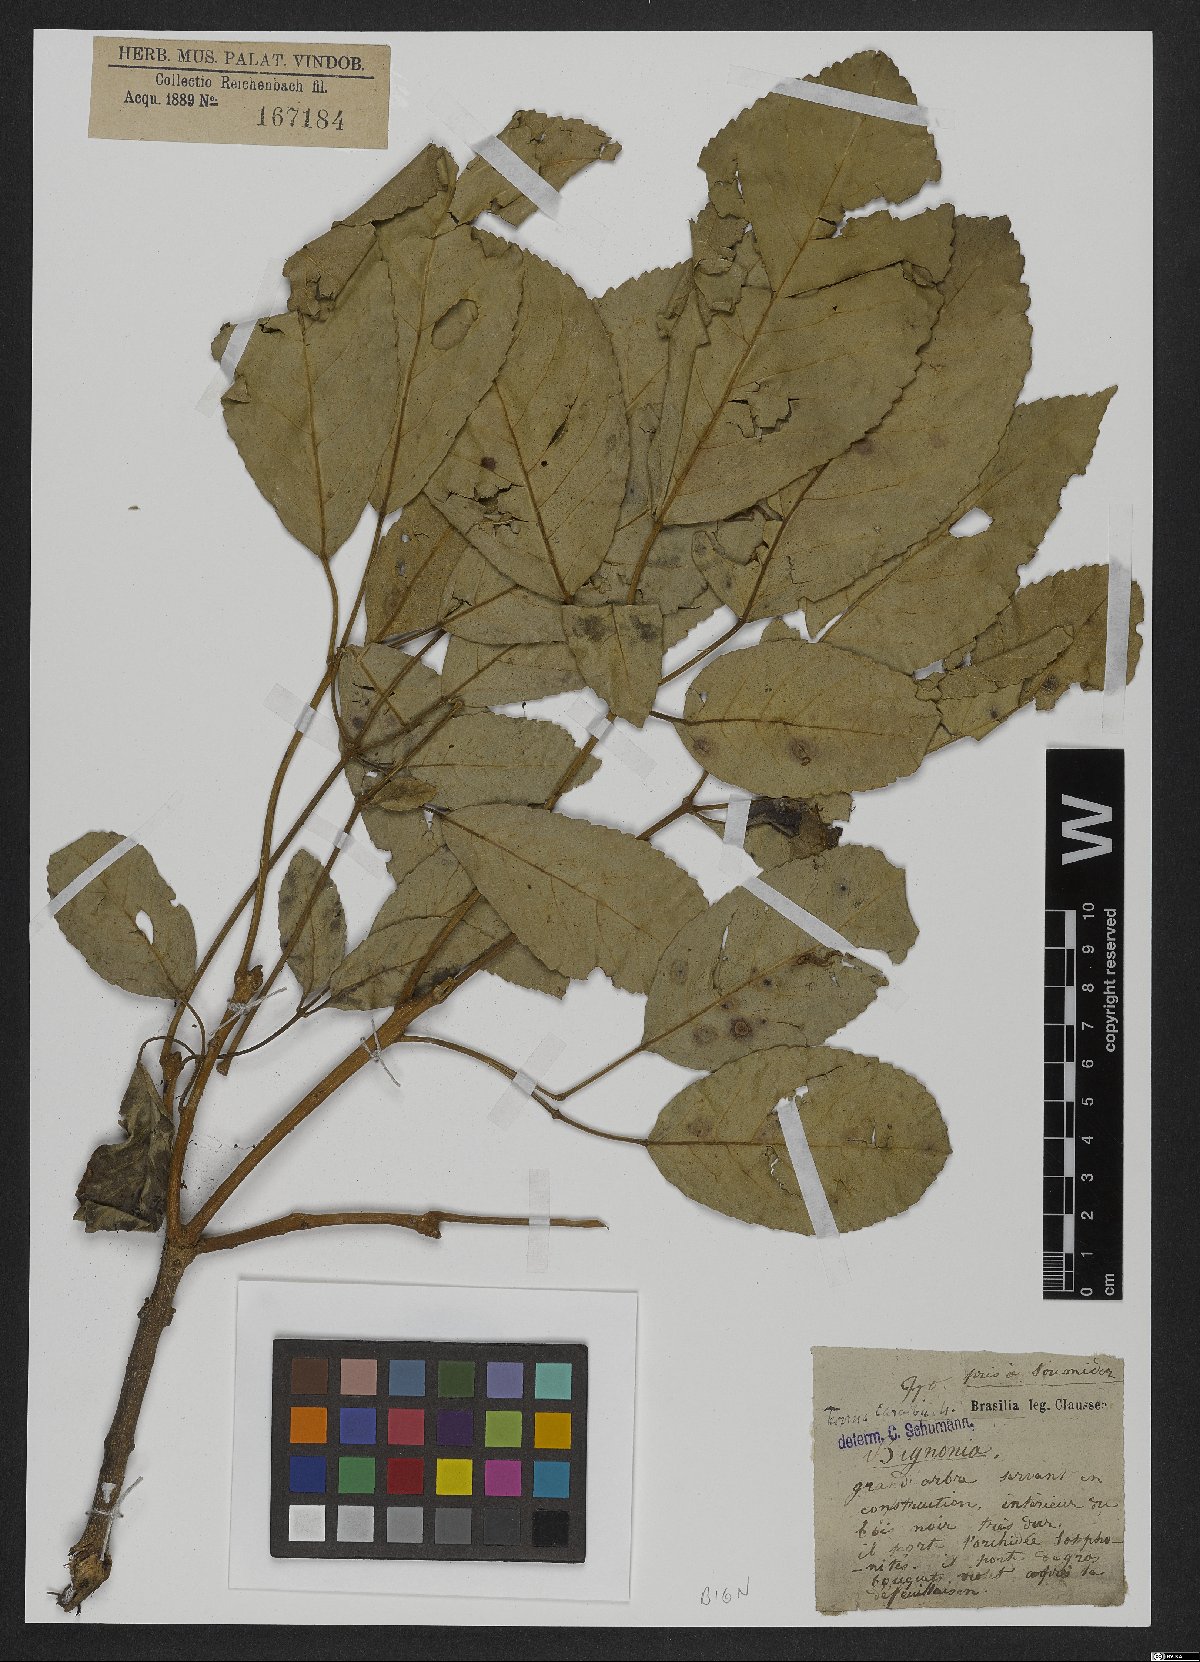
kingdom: Plantae
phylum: Tracheophyta
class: Magnoliopsida
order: Lamiales
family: Bignoniaceae
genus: Tabebuia
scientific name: Tabebuia aurea
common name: Caribbean trumpet-tree
